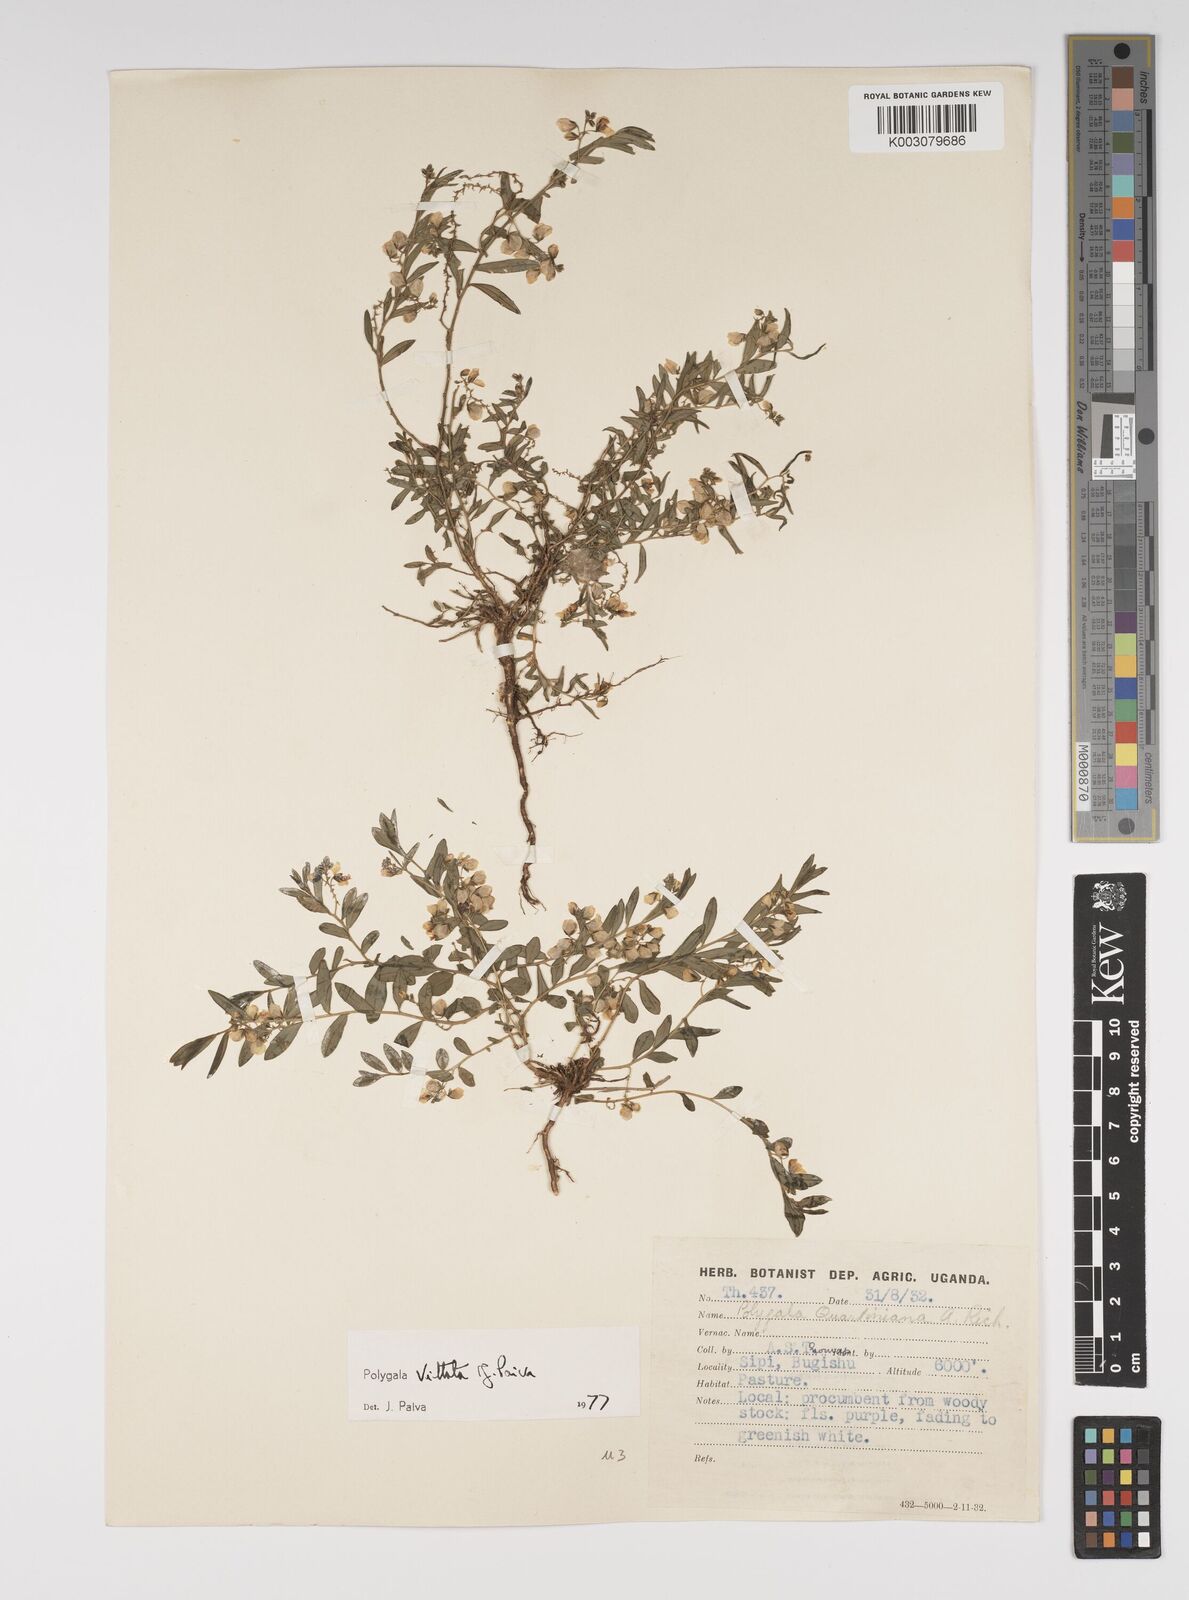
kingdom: Plantae
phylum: Tracheophyta
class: Magnoliopsida
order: Fabales
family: Polygalaceae
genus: Polygala
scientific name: Polygala vittata
